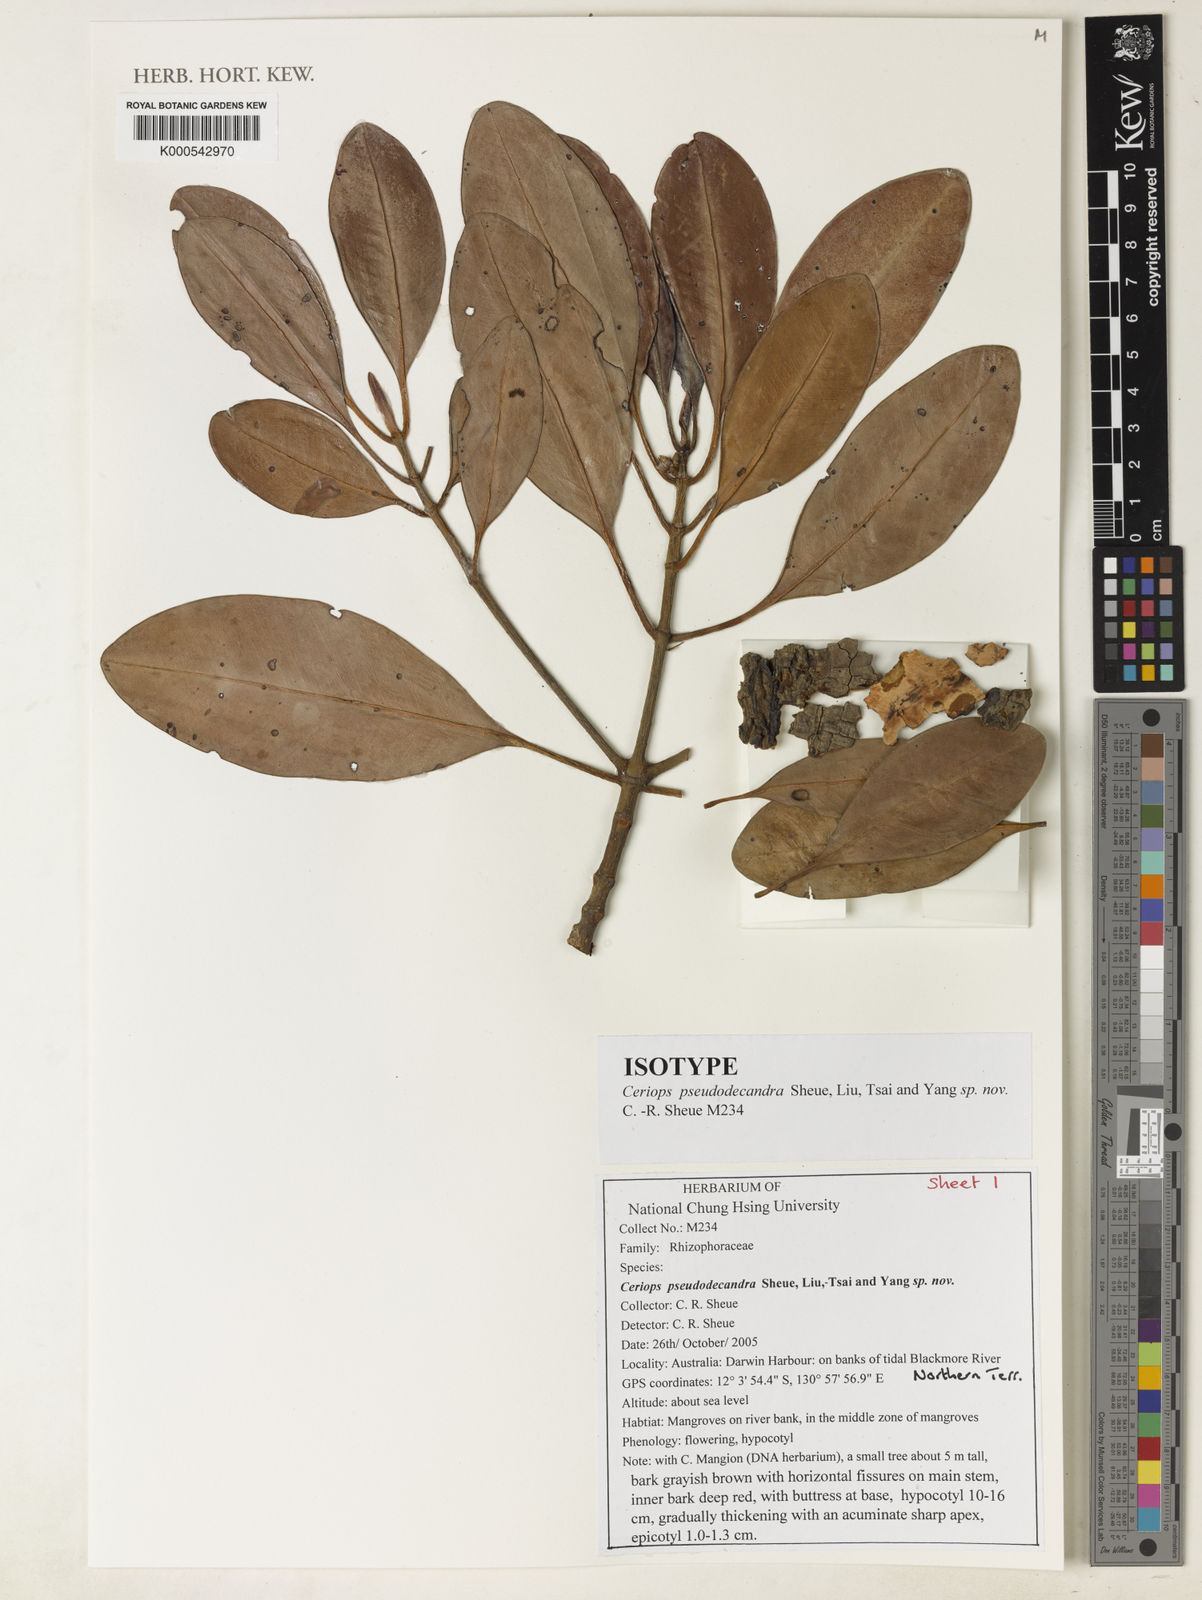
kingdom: Plantae
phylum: Tracheophyta
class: Magnoliopsida
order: Malpighiales
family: Rhizophoraceae
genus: Ceriops
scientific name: Ceriops pseudodecandra
